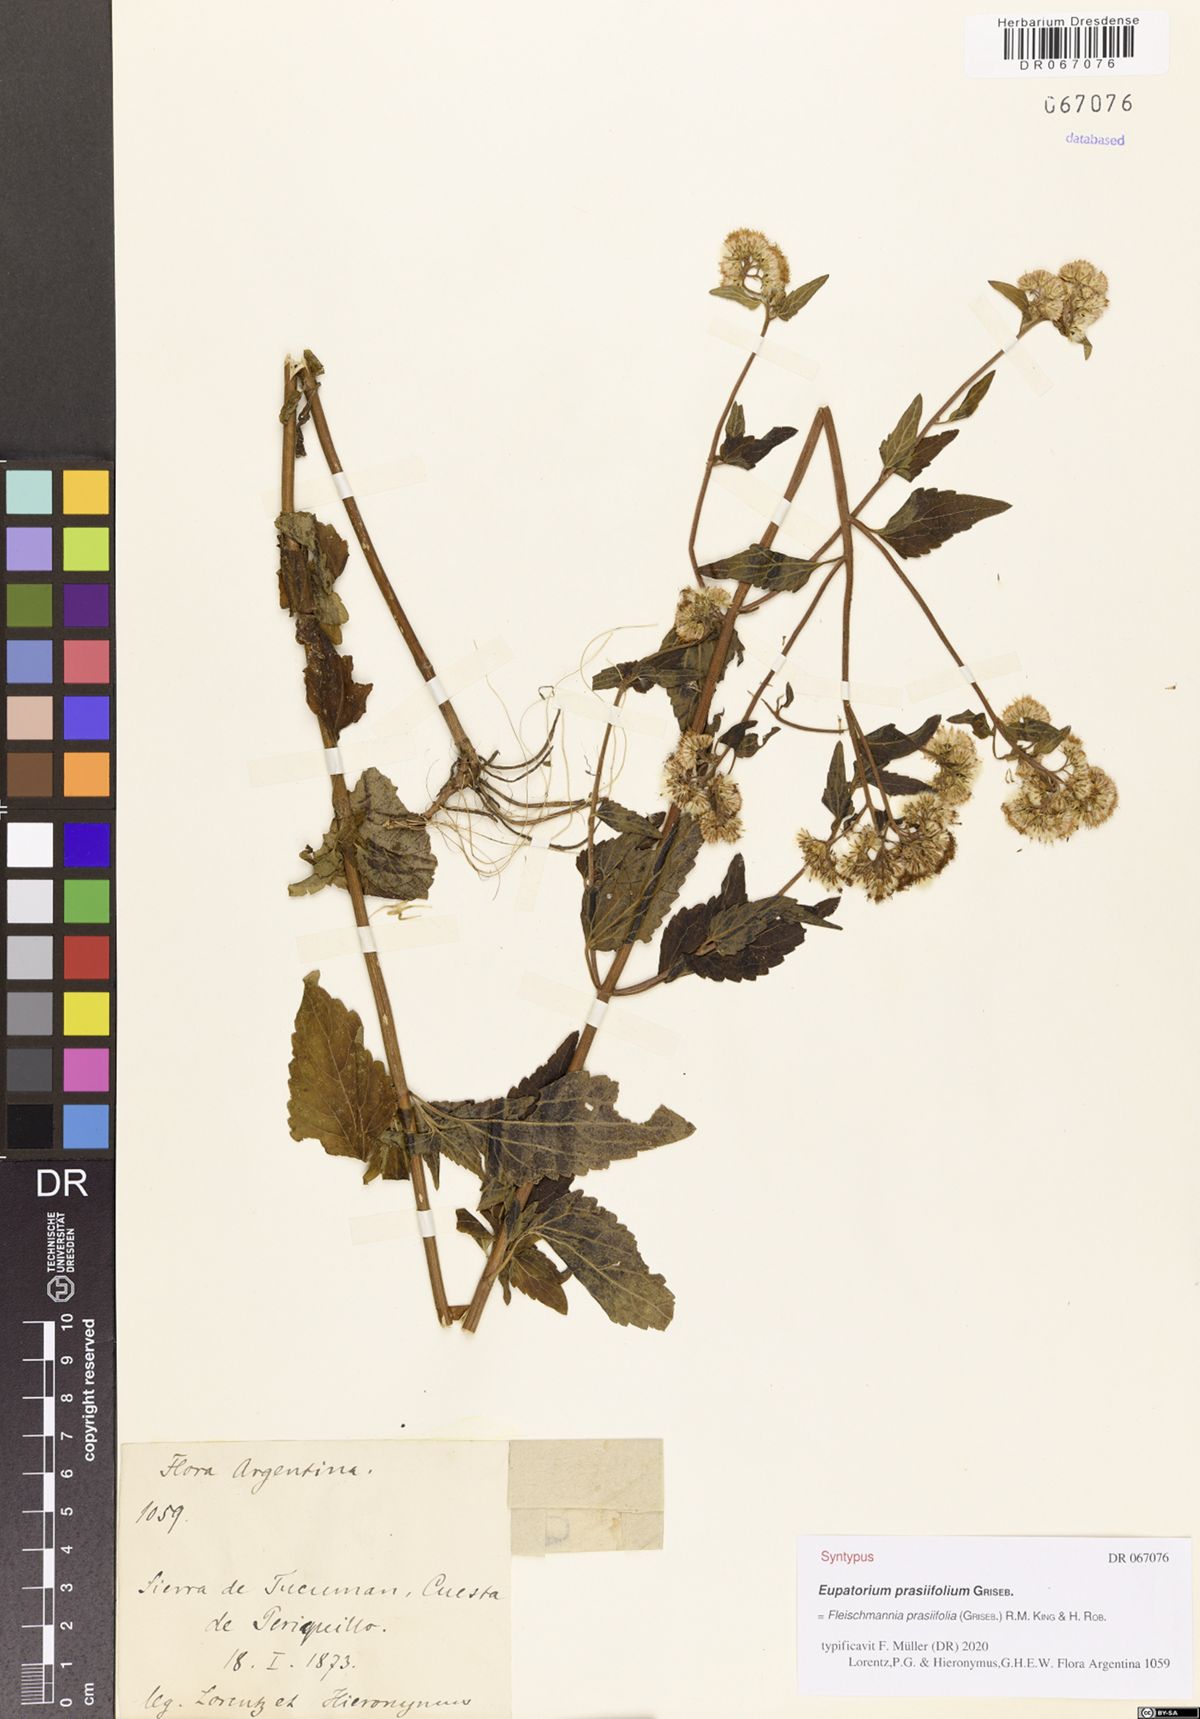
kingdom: Plantae
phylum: Tracheophyta
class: Magnoliopsida
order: Asterales
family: Asteraceae
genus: Fleischmannia
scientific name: Fleischmannia prasiifolia
